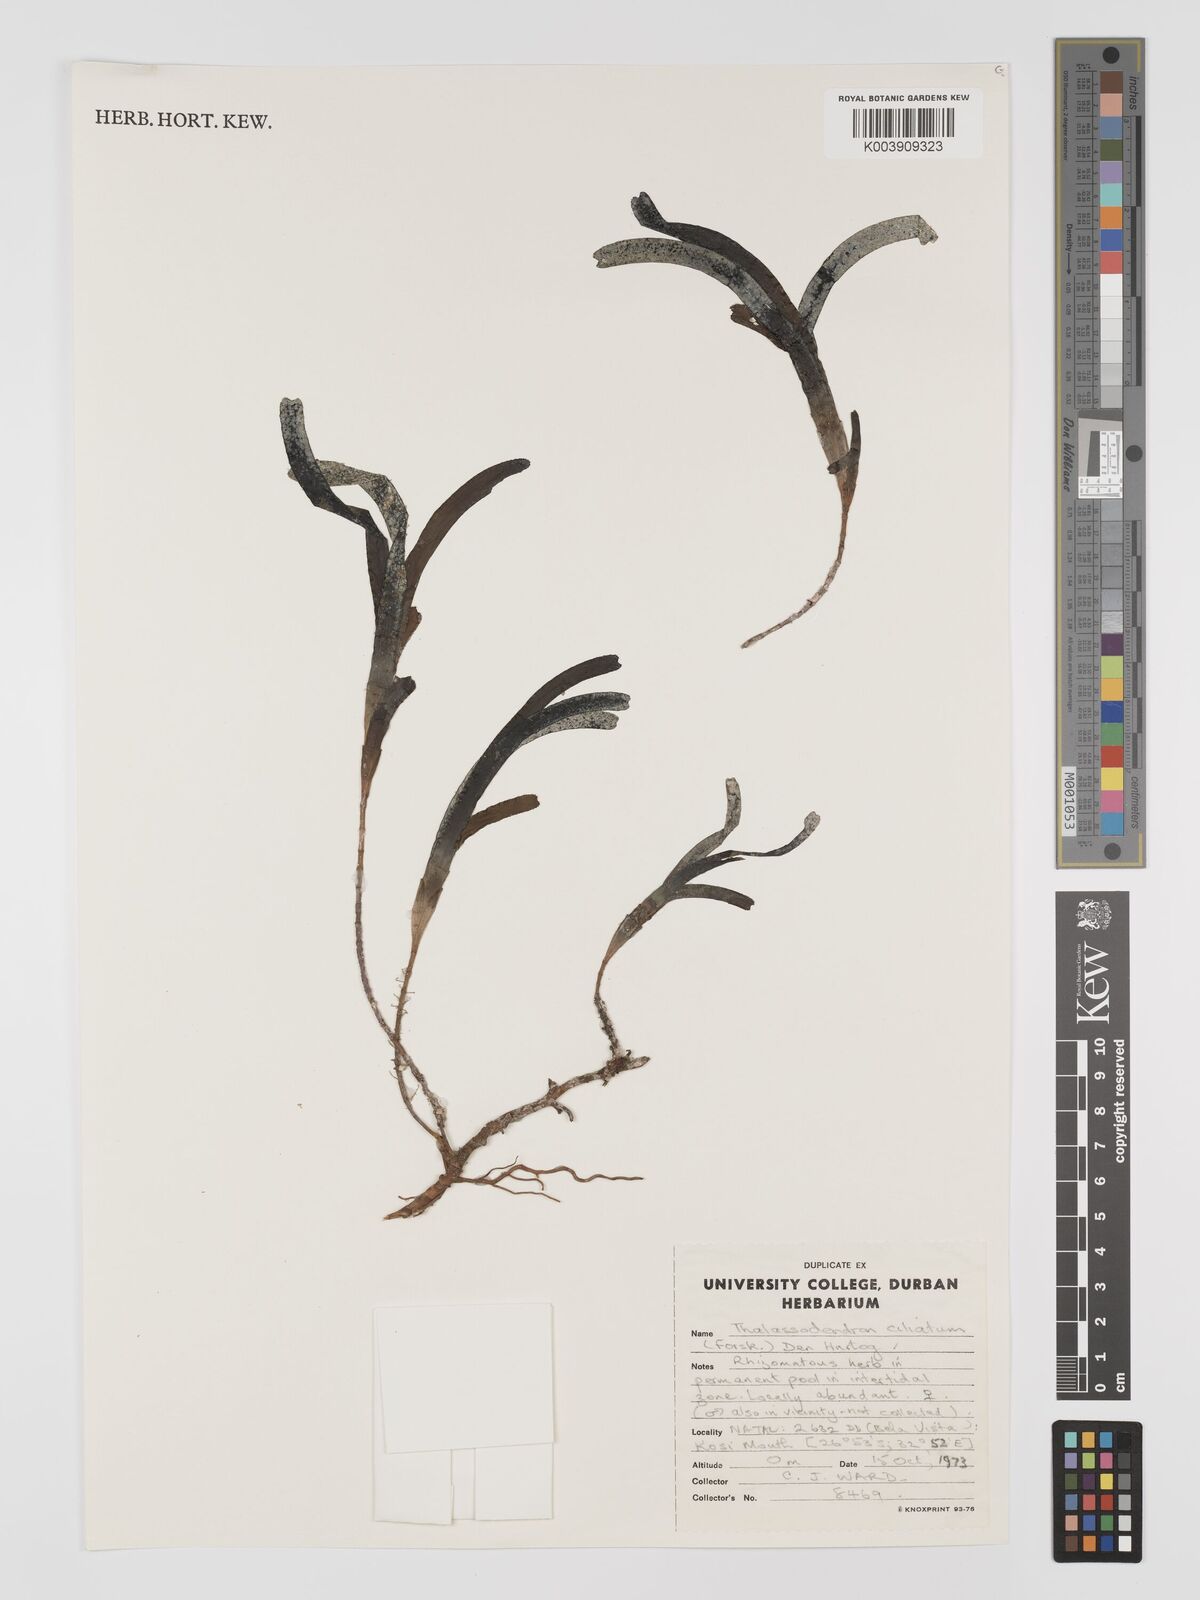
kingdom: Plantae
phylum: Tracheophyta
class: Liliopsida
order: Alismatales
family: Cymodoceaceae
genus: Thalassodendron
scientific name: Thalassodendron ciliatum
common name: Species code: tc
